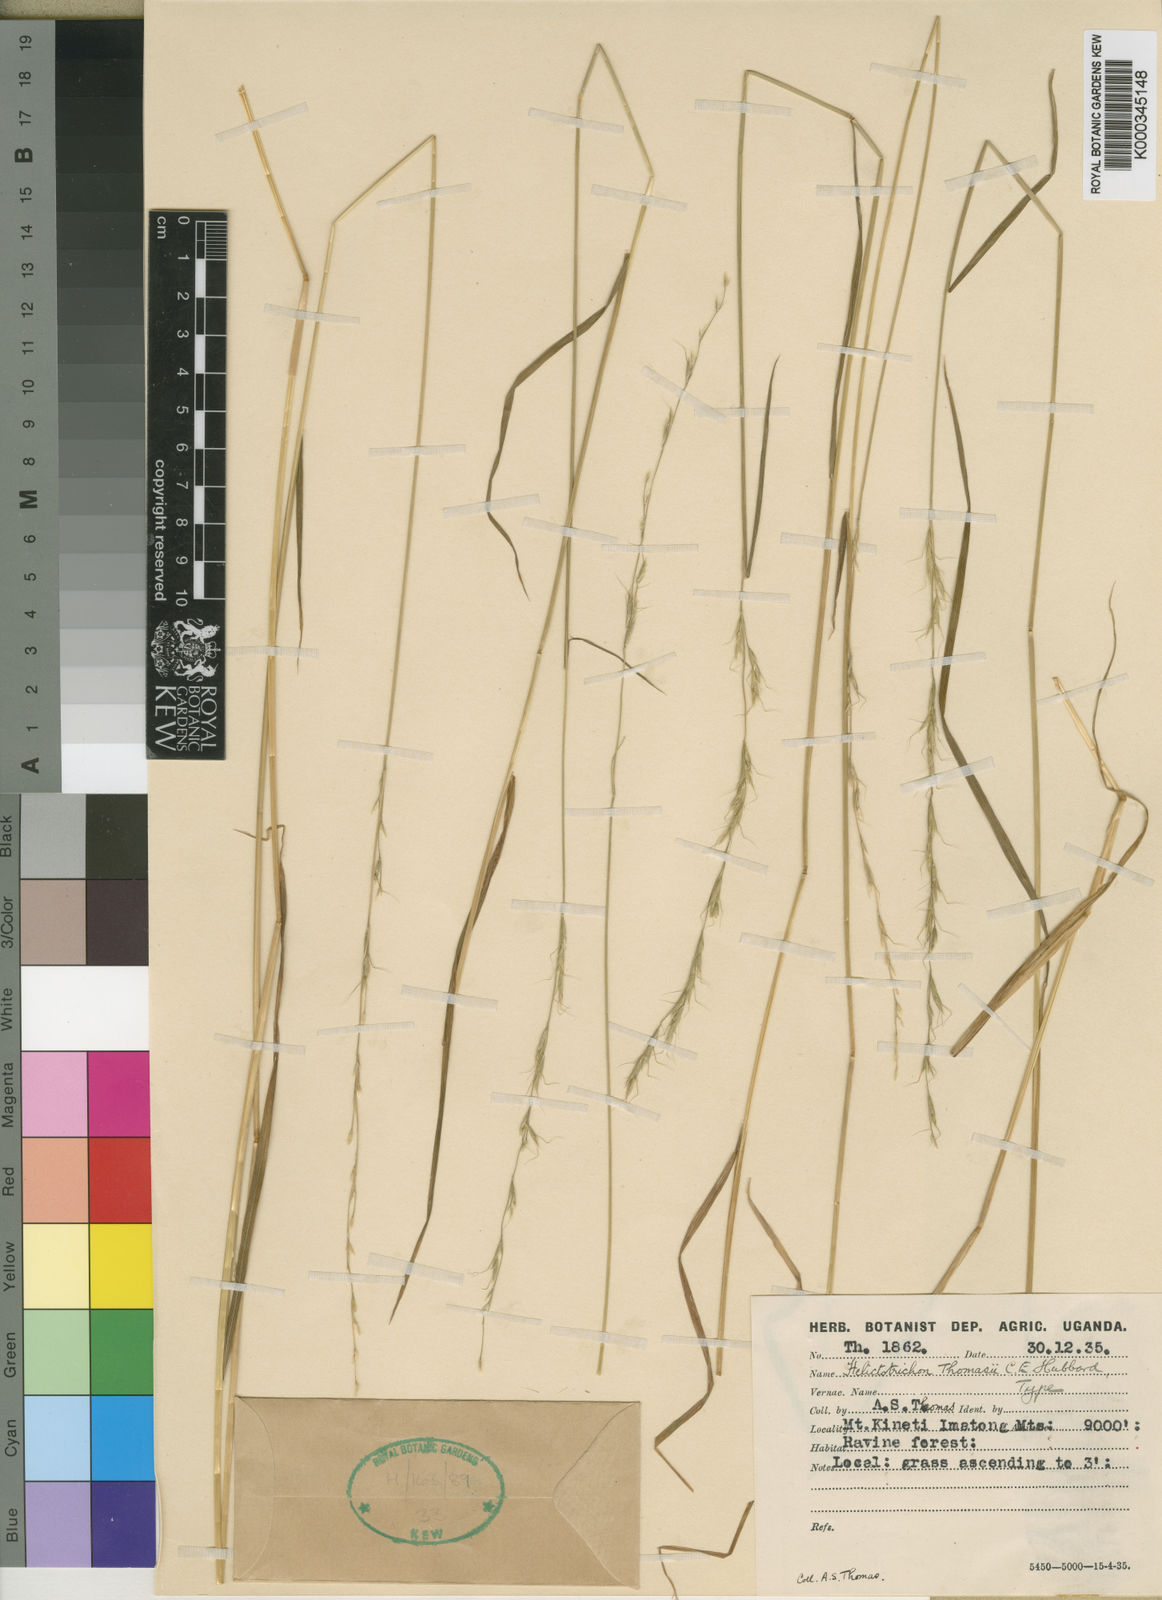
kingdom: Plantae
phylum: Tracheophyta
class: Liliopsida
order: Poales
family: Poaceae
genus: Trisetopsis
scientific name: Trisetopsis umbrosa
